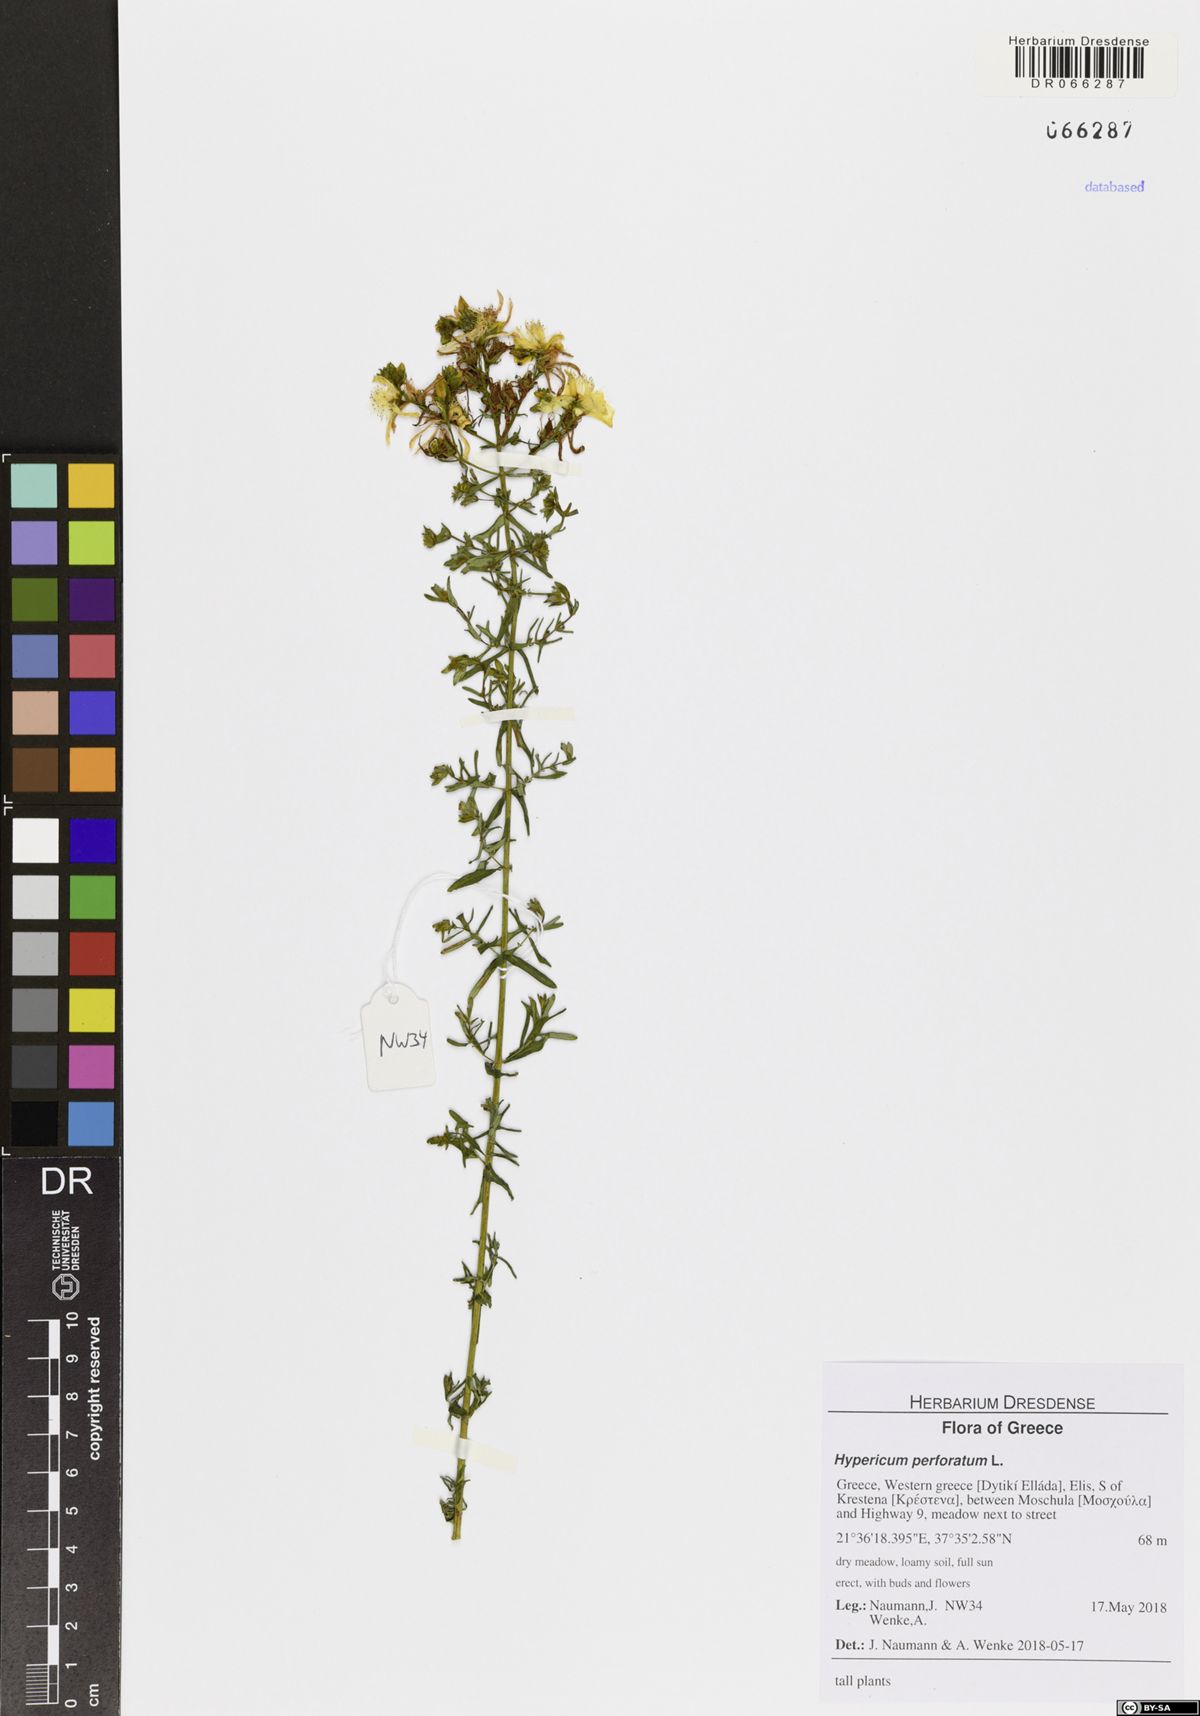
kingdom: Plantae
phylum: Tracheophyta
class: Magnoliopsida
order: Malpighiales
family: Hypericaceae
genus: Hypericum
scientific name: Hypericum perforatum
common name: Common st. johnswort
